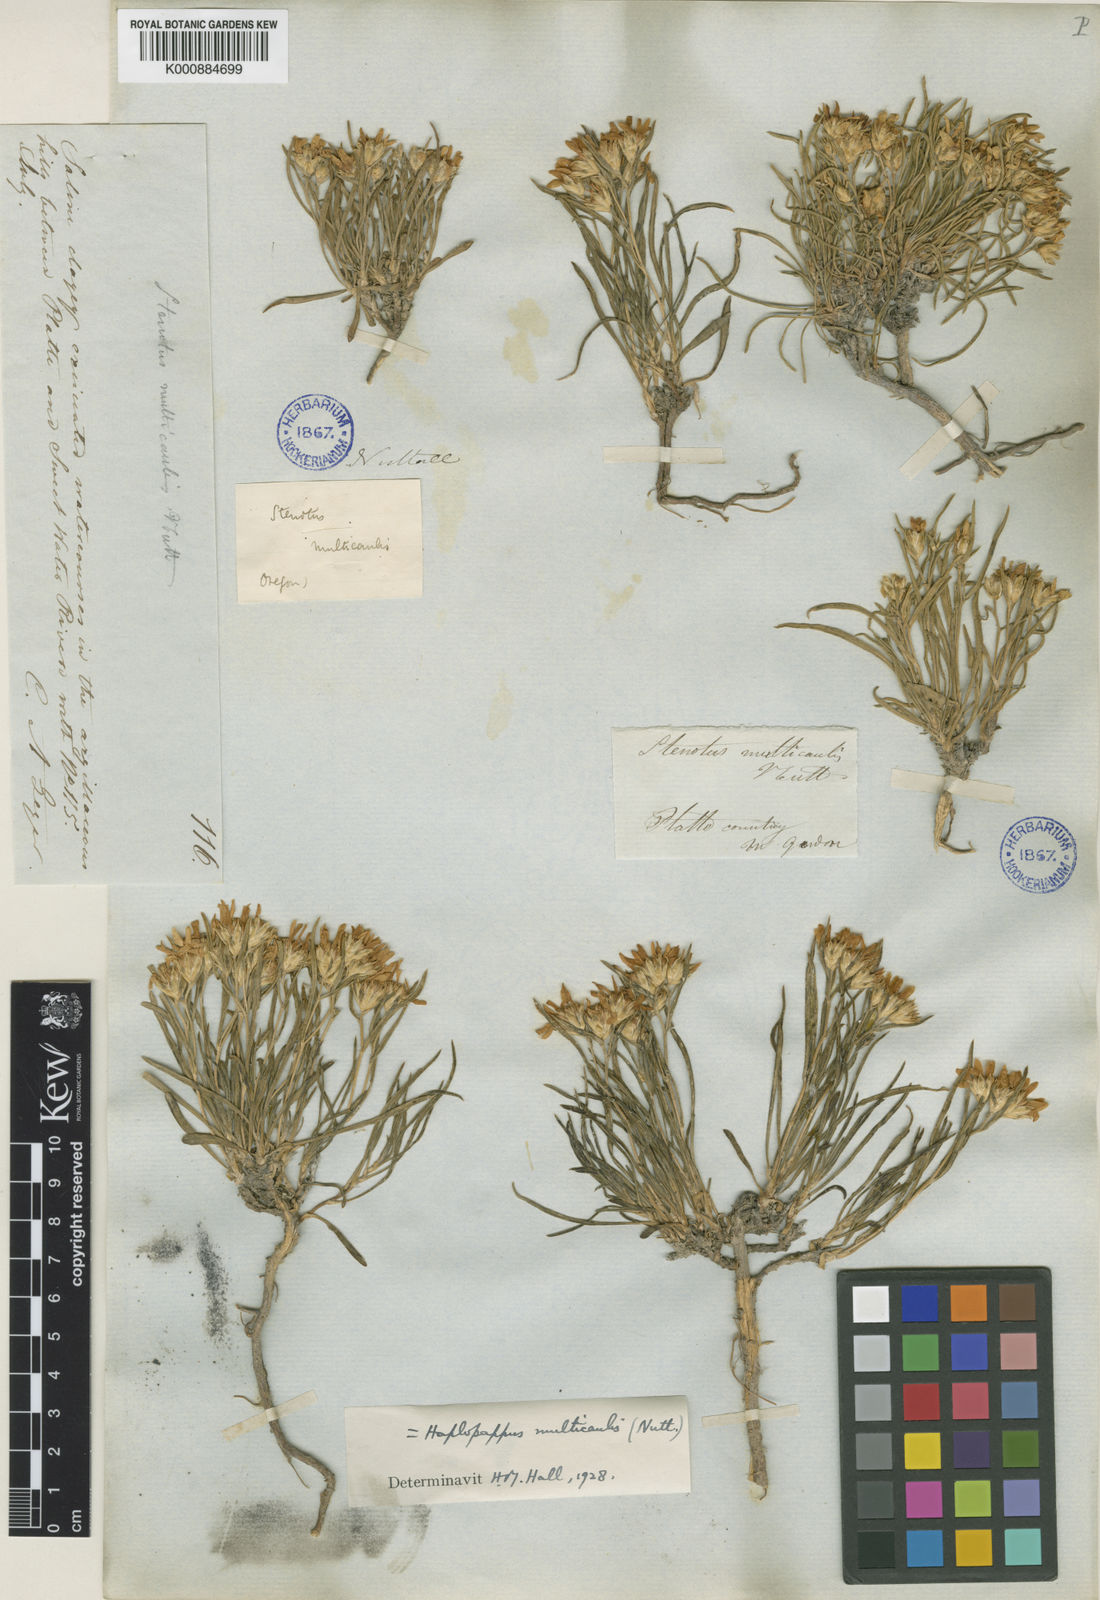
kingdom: Plantae
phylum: Tracheophyta
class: Magnoliopsida
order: Asterales
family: Asteraceae
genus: Oonopsis
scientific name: Oonopsis multicaulis
